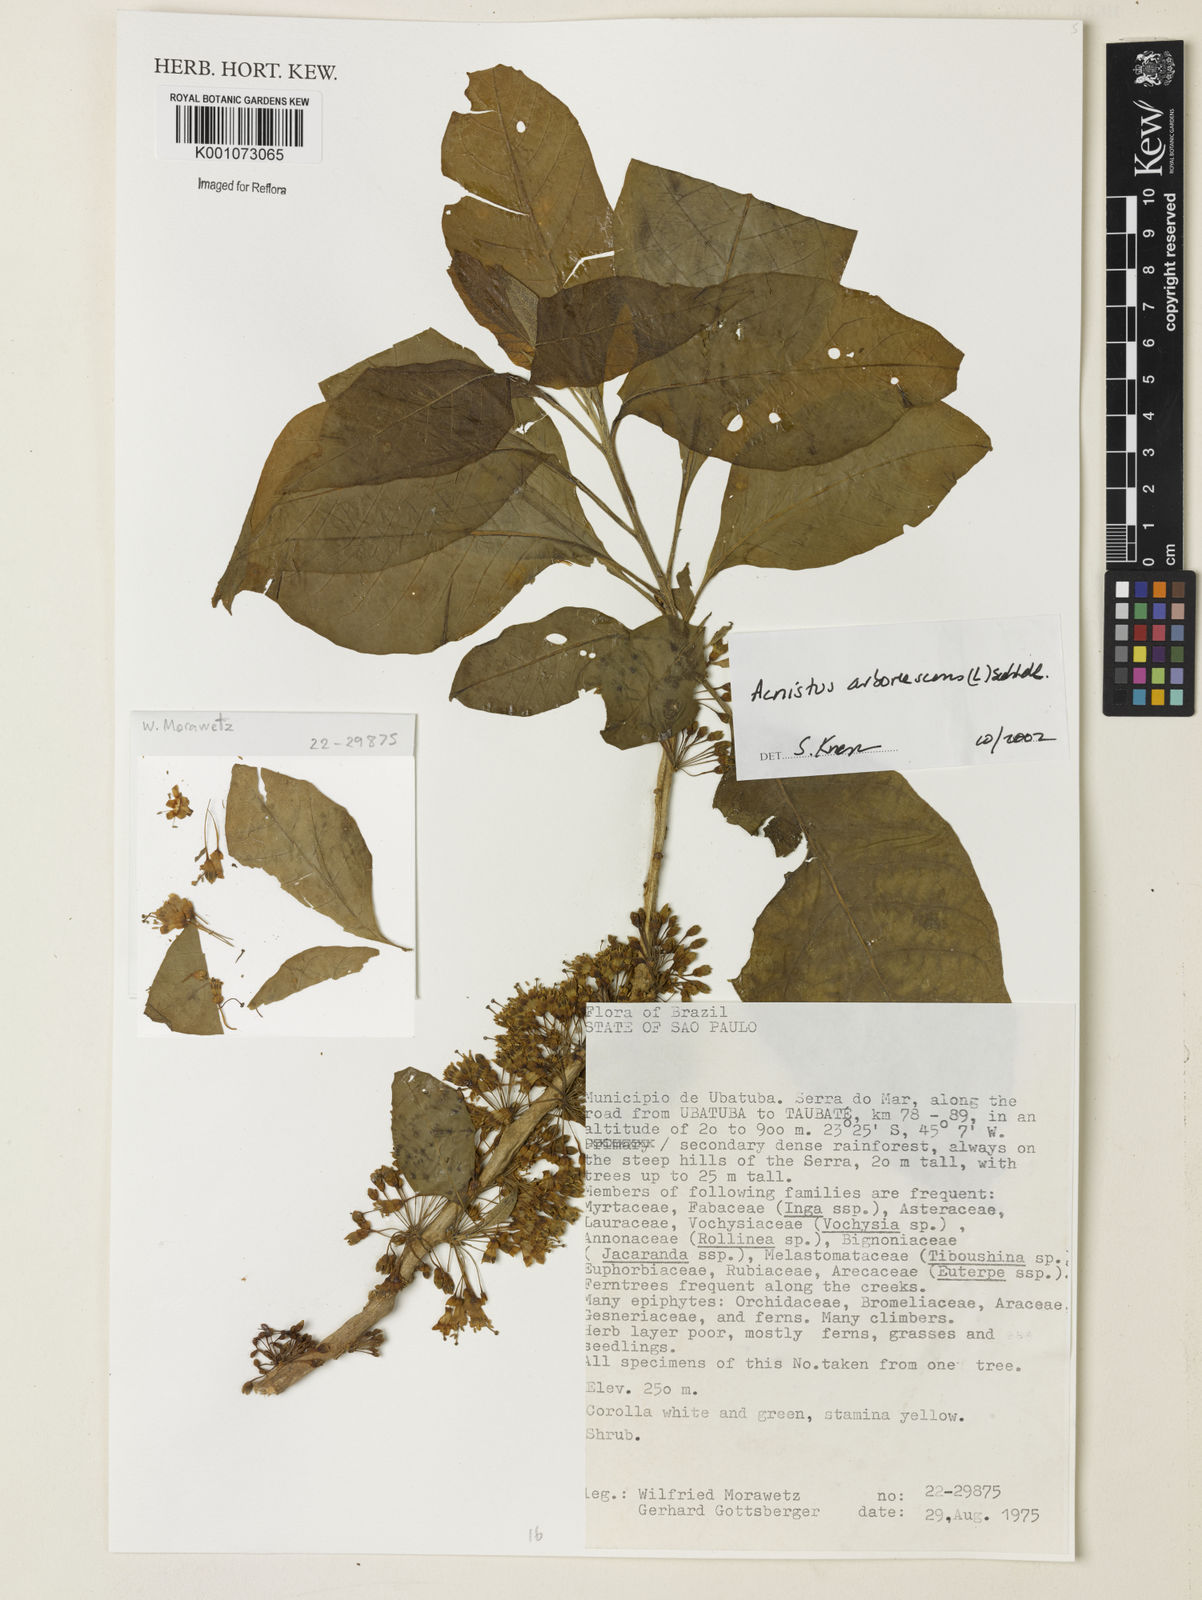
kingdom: Plantae
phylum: Tracheophyta
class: Magnoliopsida
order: Solanales
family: Solanaceae
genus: Iochroma
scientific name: Iochroma arborescens
